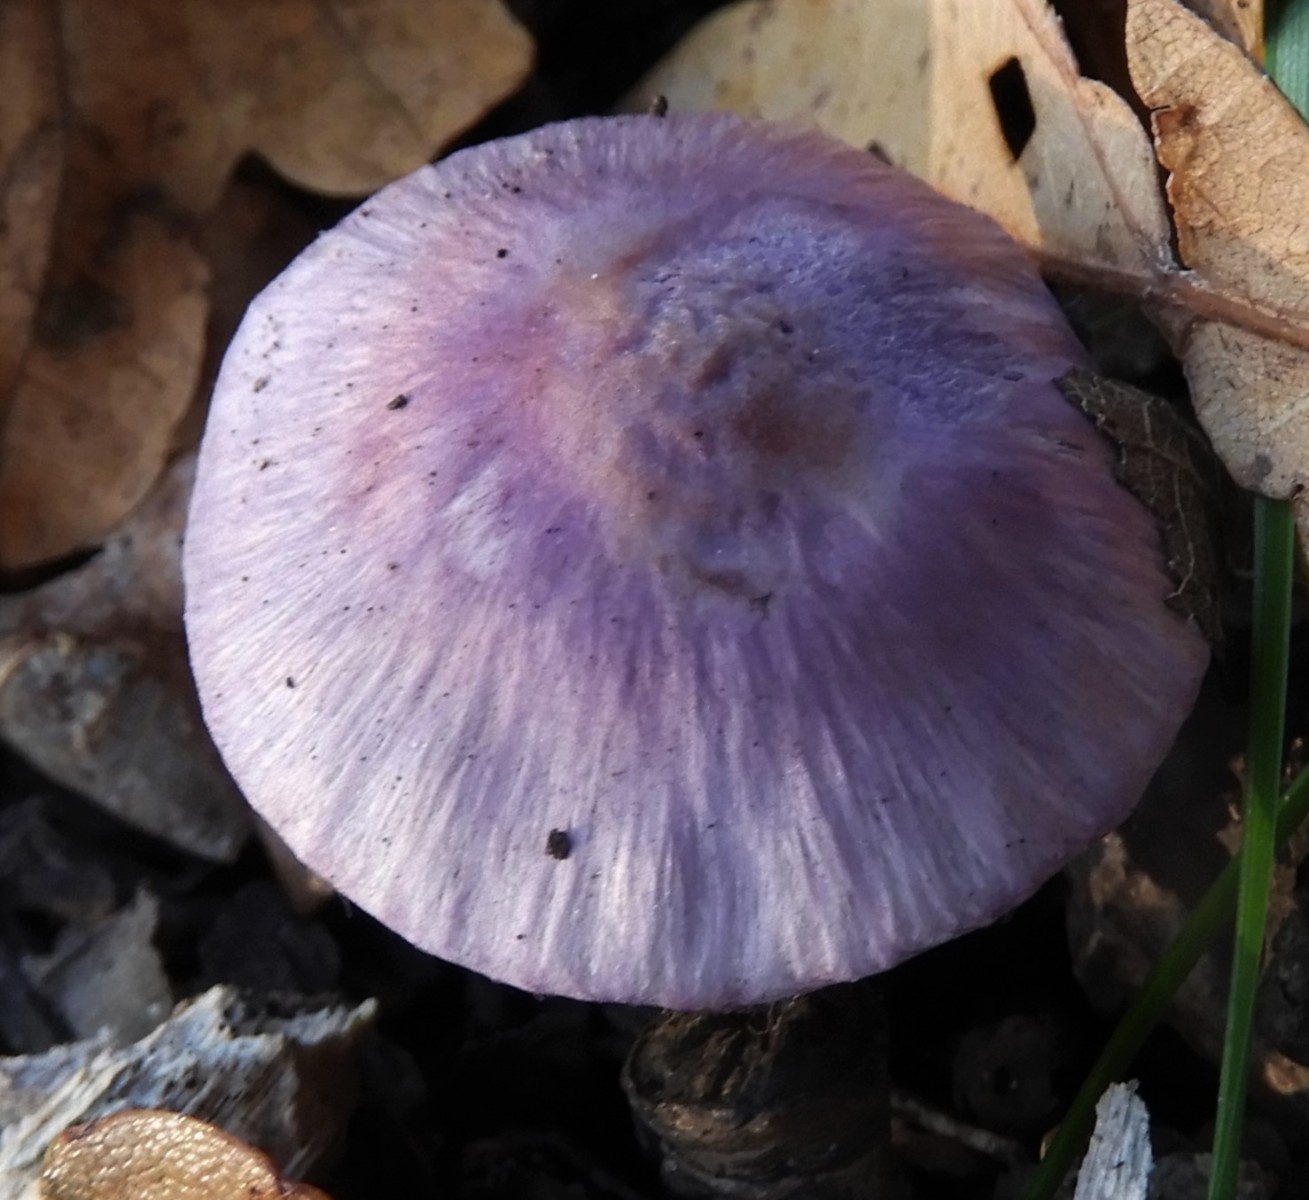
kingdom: Fungi
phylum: Basidiomycota
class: Agaricomycetes
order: Agaricales
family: Inocybaceae
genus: Inocybe
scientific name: Inocybe geophylla
